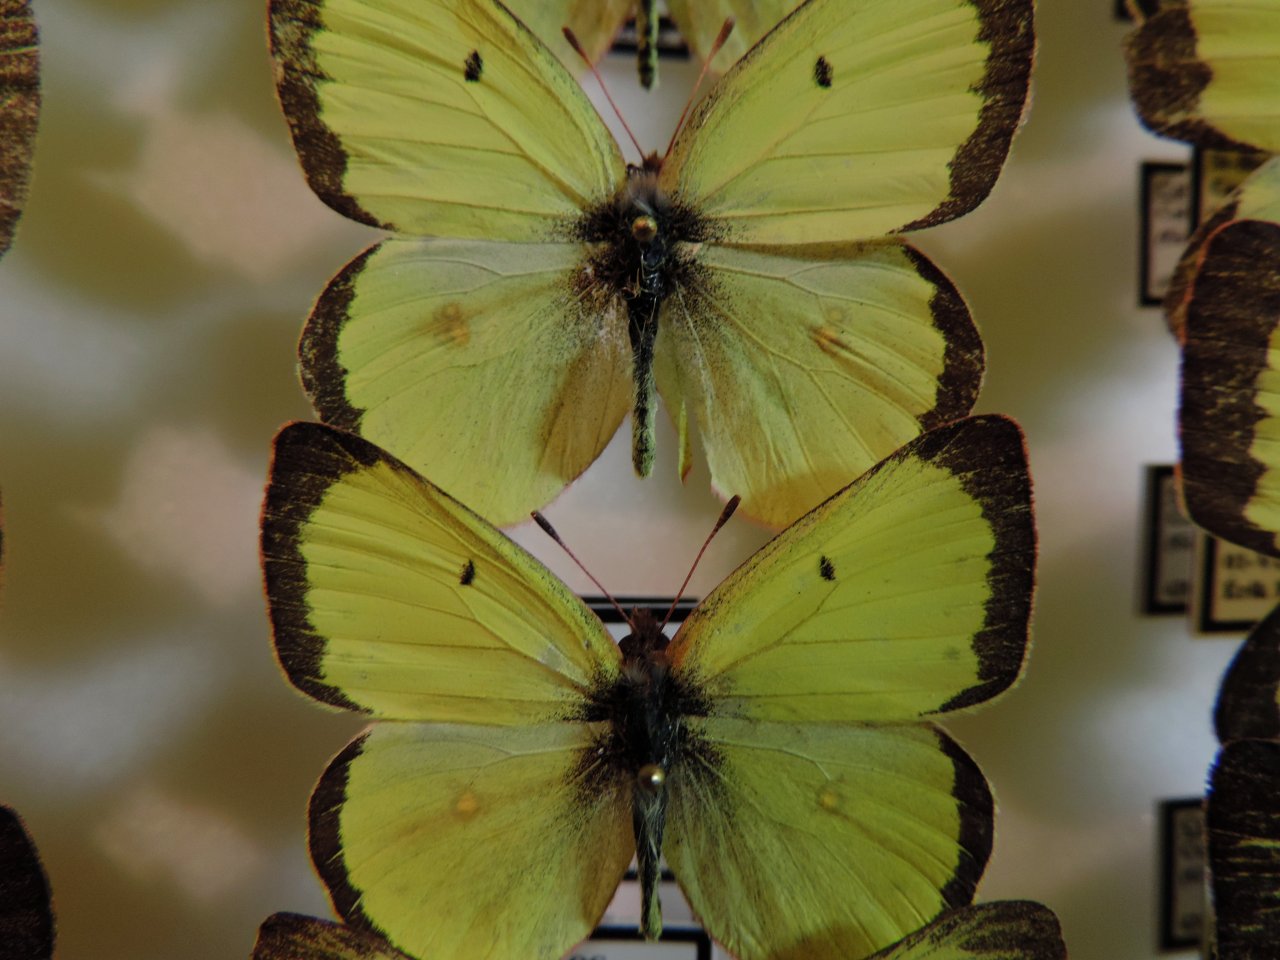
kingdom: Animalia
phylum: Arthropoda
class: Insecta
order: Lepidoptera
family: Pieridae
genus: Colias
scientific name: Colias philodice
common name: Clouded Sulphur
